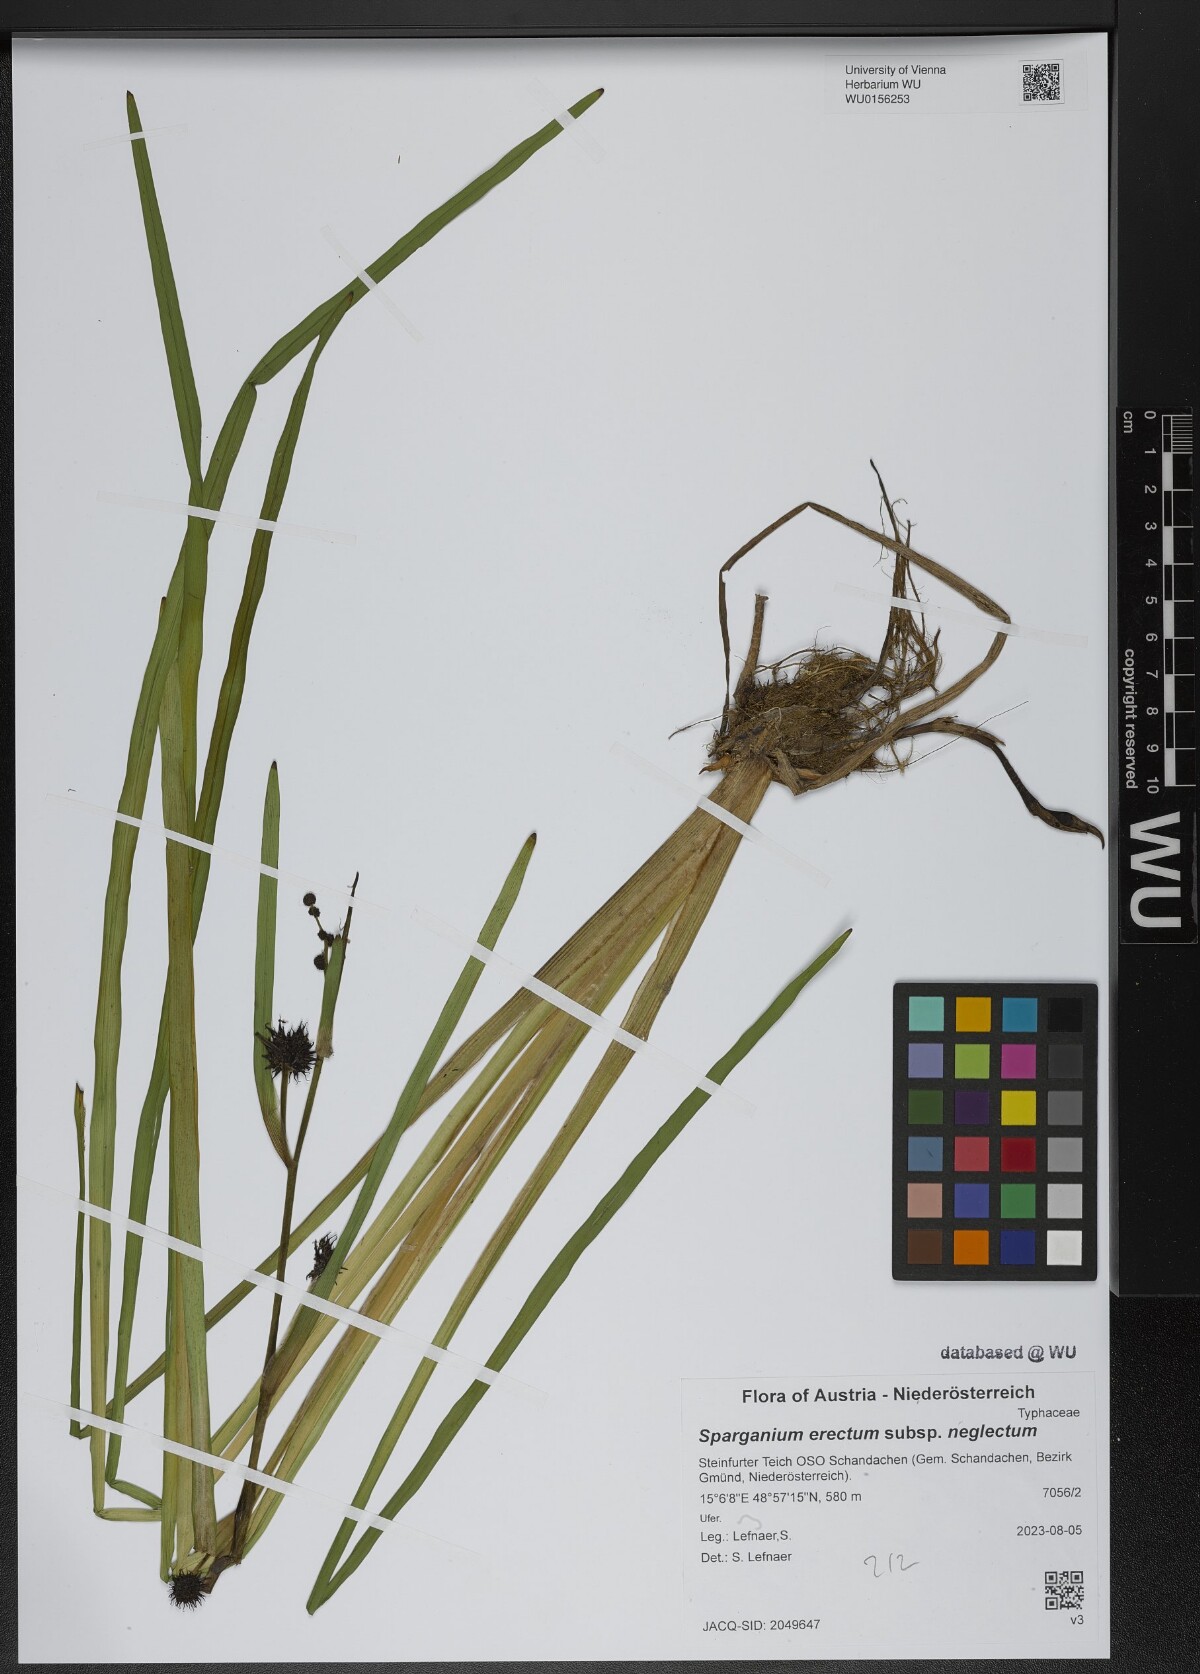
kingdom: Plantae
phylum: Tracheophyta
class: Liliopsida
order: Poales
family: Typhaceae
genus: Sparganium
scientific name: Sparganium erectum
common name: Branched bur-reed
